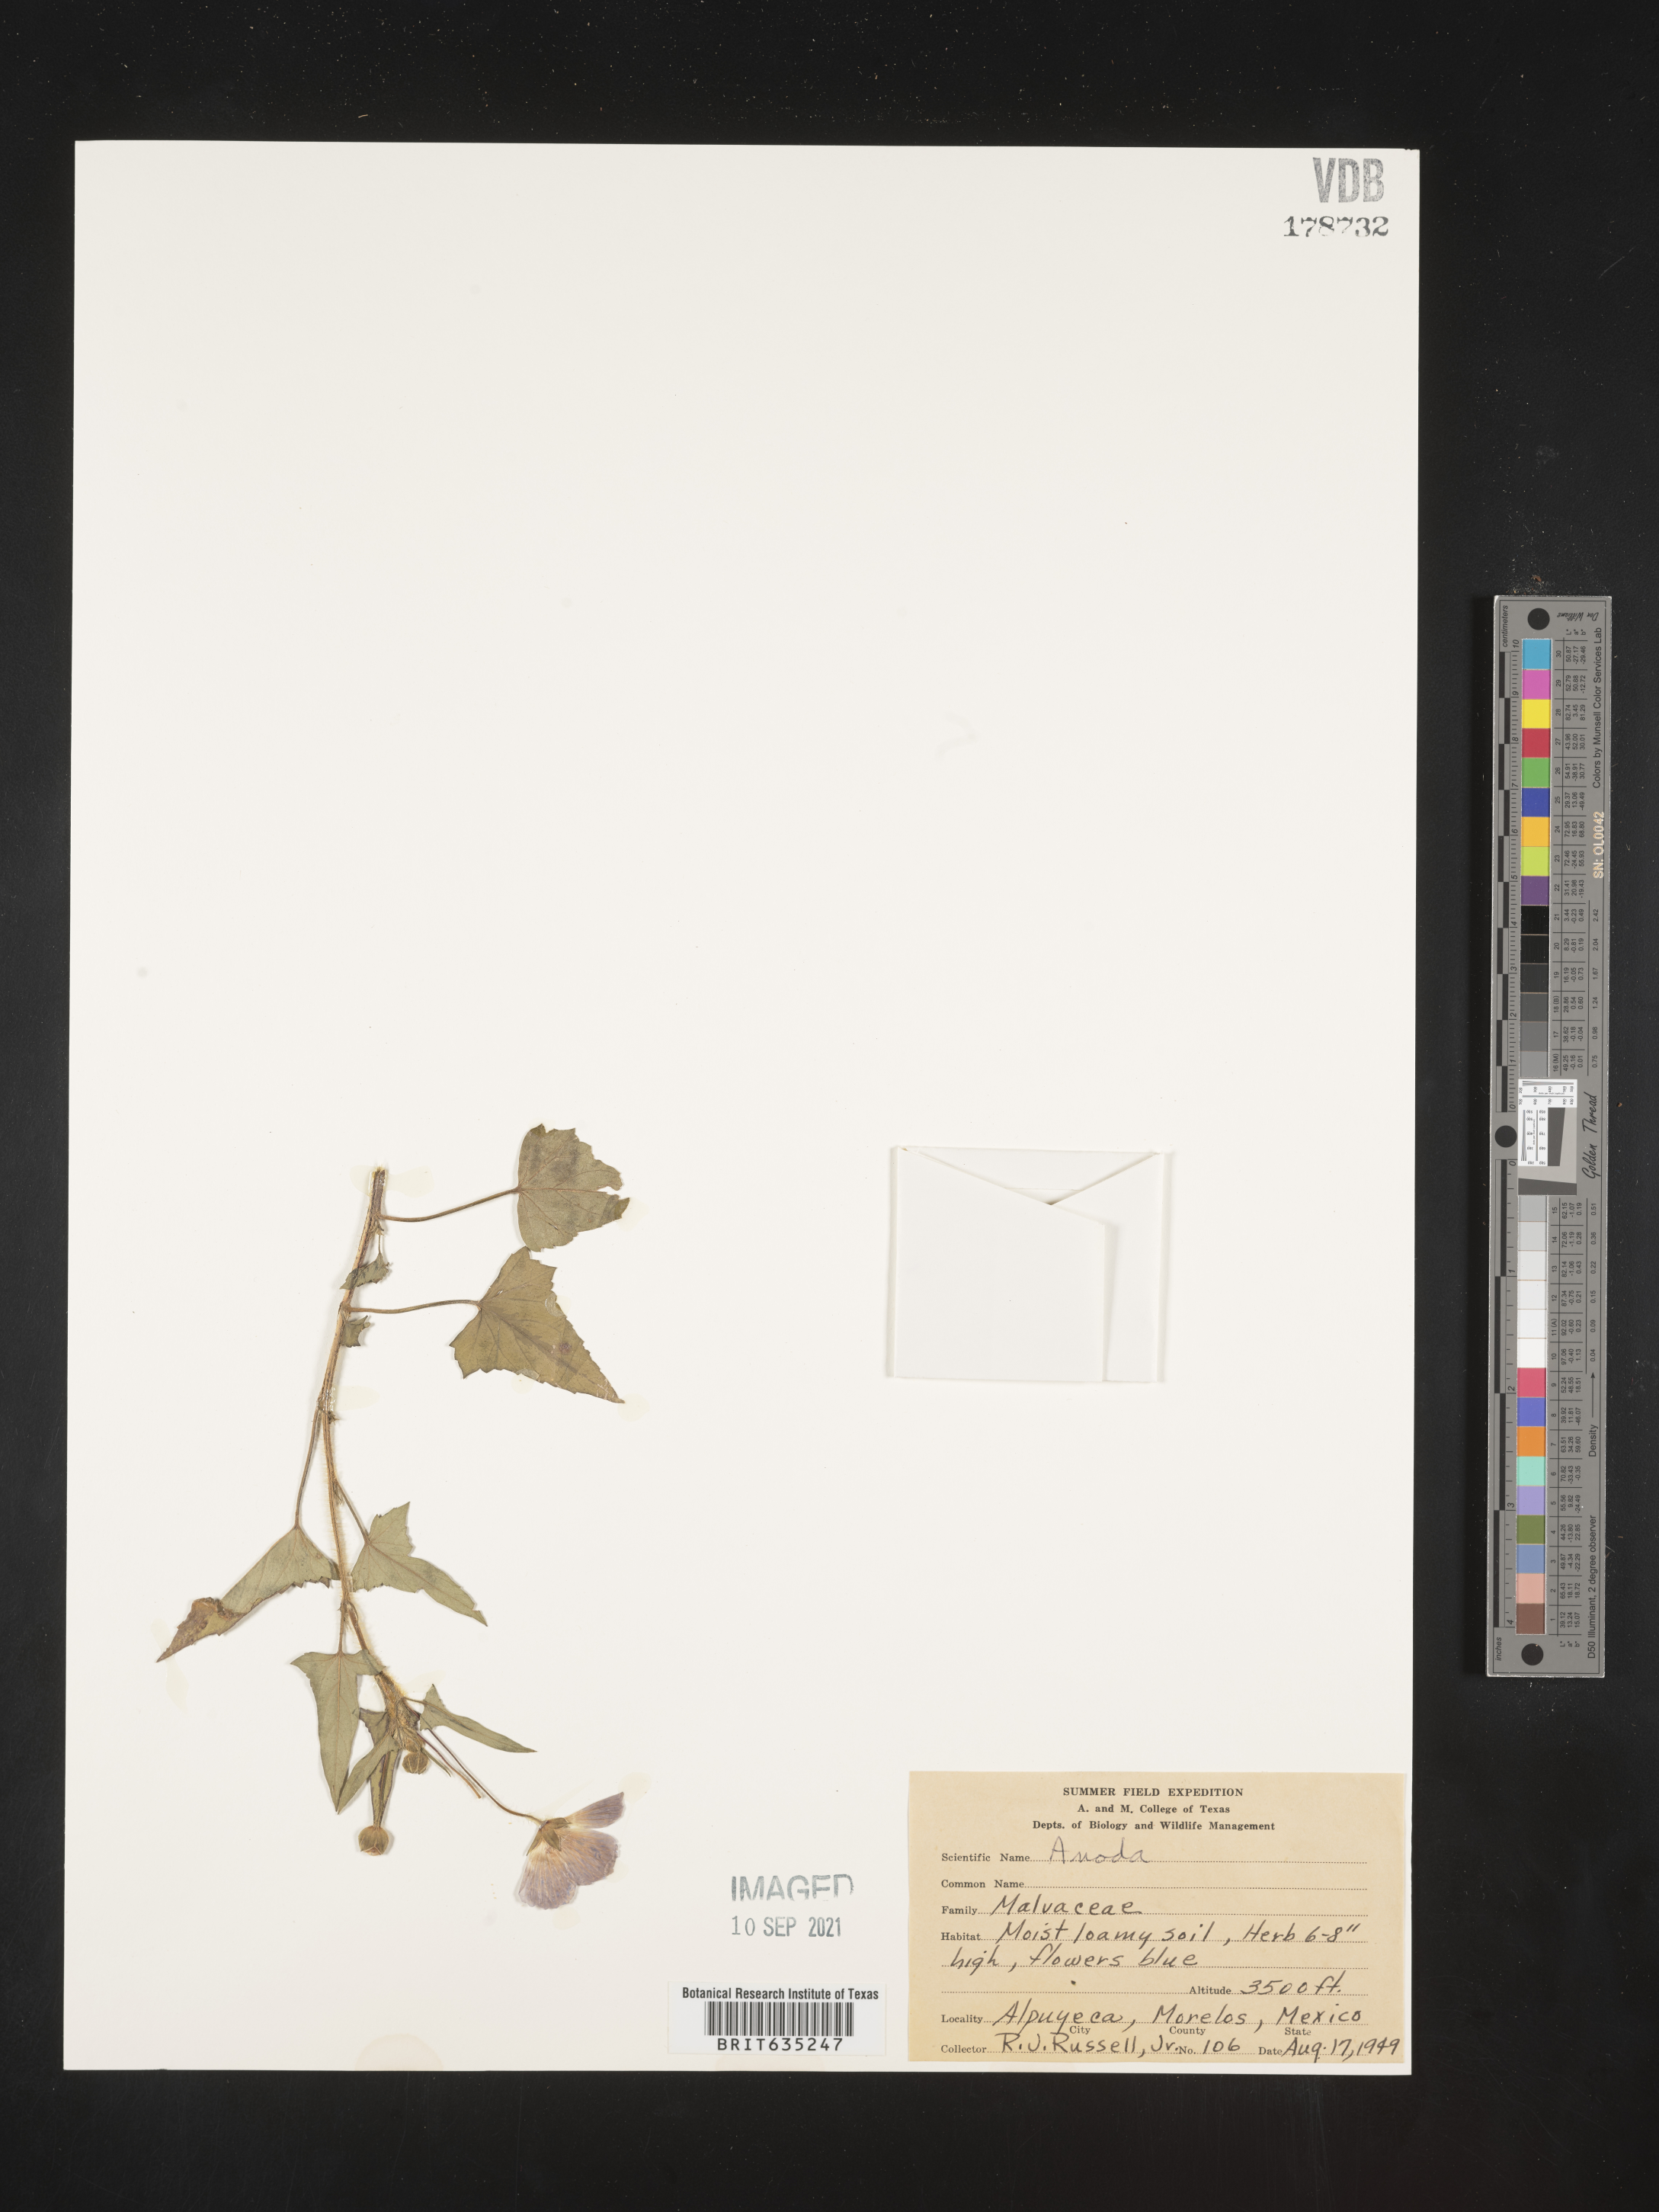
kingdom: Plantae
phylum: Tracheophyta
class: Magnoliopsida
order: Malvales
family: Malvaceae
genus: Anoda
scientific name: Anoda
